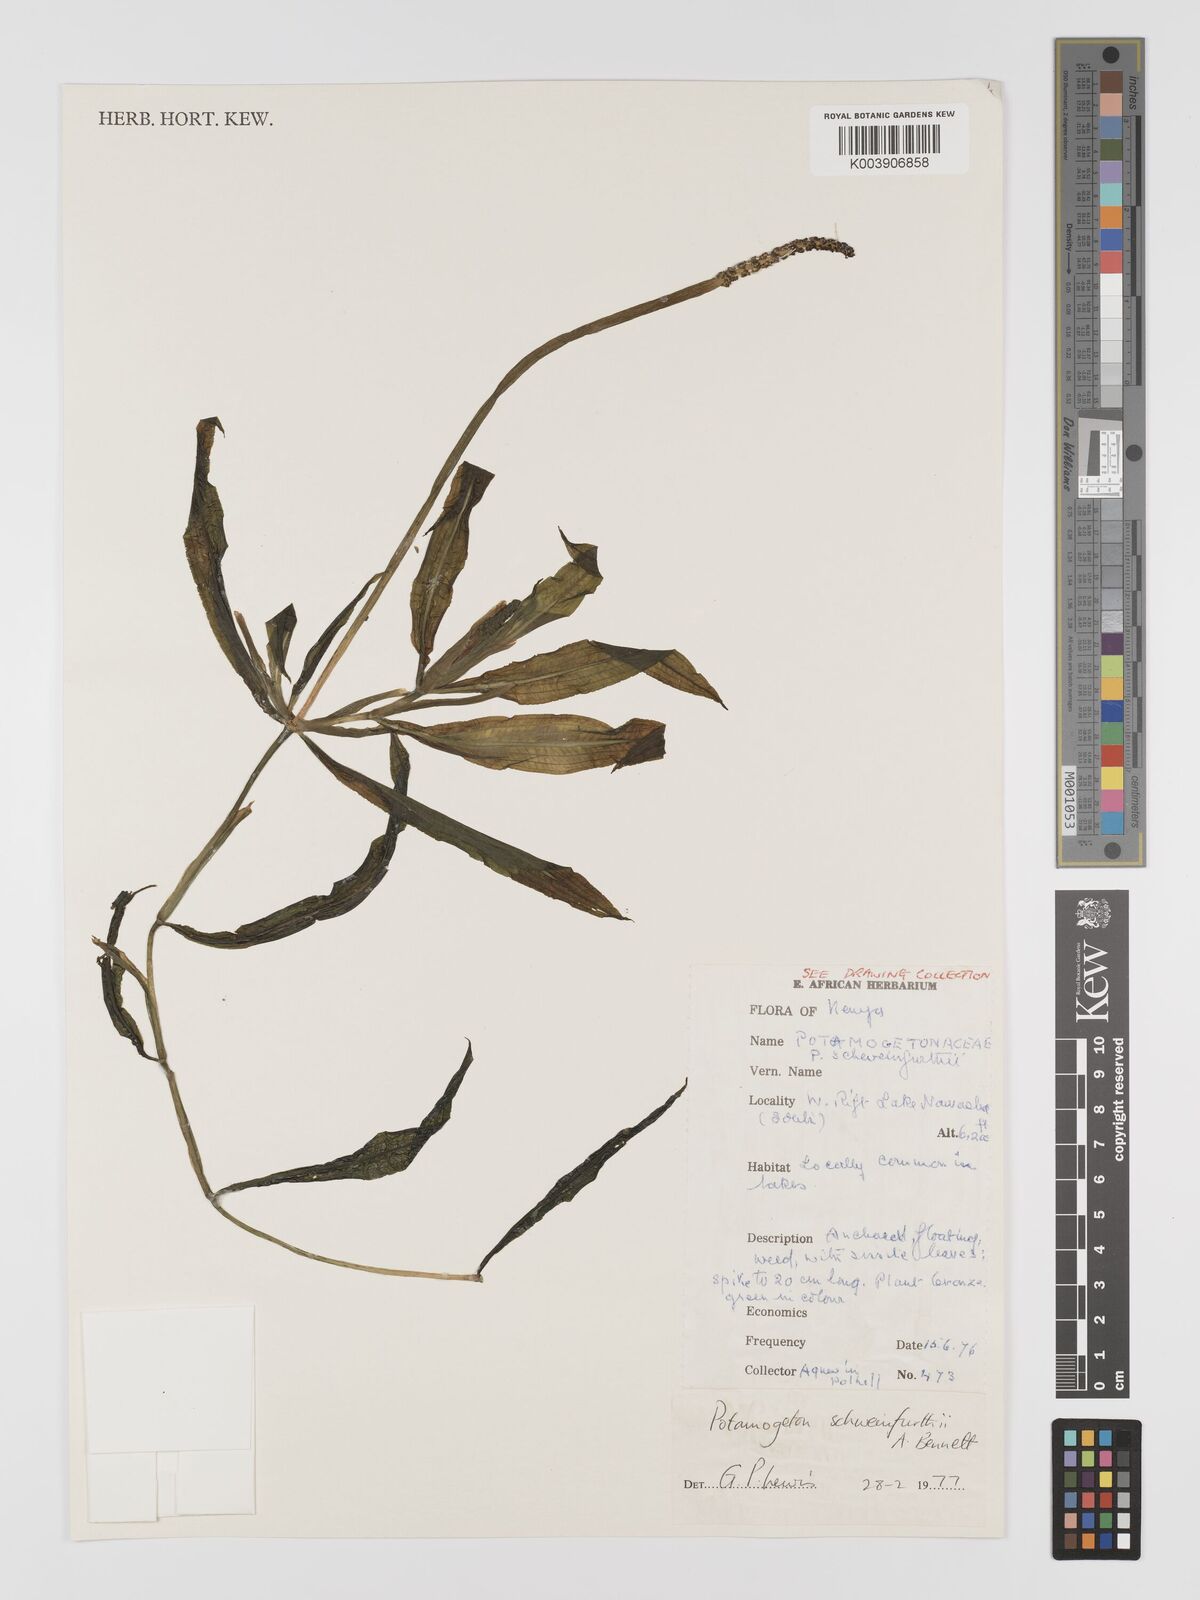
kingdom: Plantae
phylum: Tracheophyta
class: Liliopsida
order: Alismatales
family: Potamogetonaceae
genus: Potamogeton
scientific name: Potamogeton schweinfurthii
